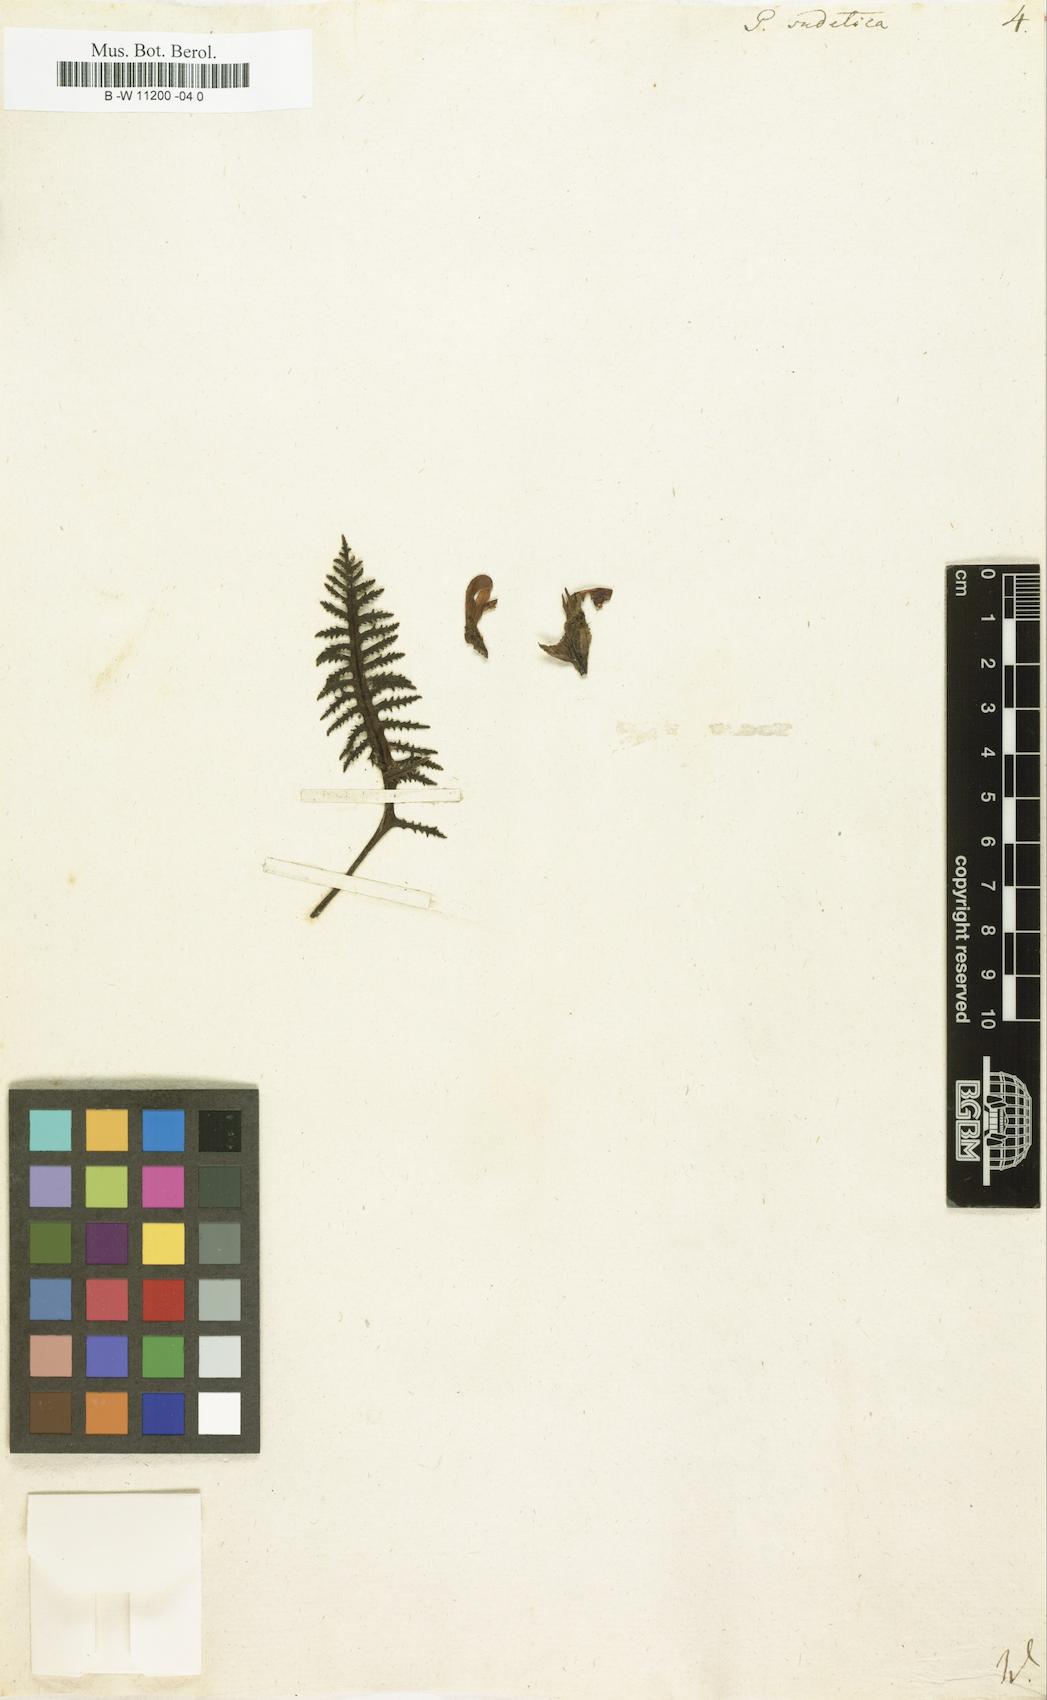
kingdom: Plantae
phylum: Tracheophyta
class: Magnoliopsida
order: Lamiales
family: Orobanchaceae
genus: Pedicularis
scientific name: Pedicularis sudetica
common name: Sudeten lousewort
